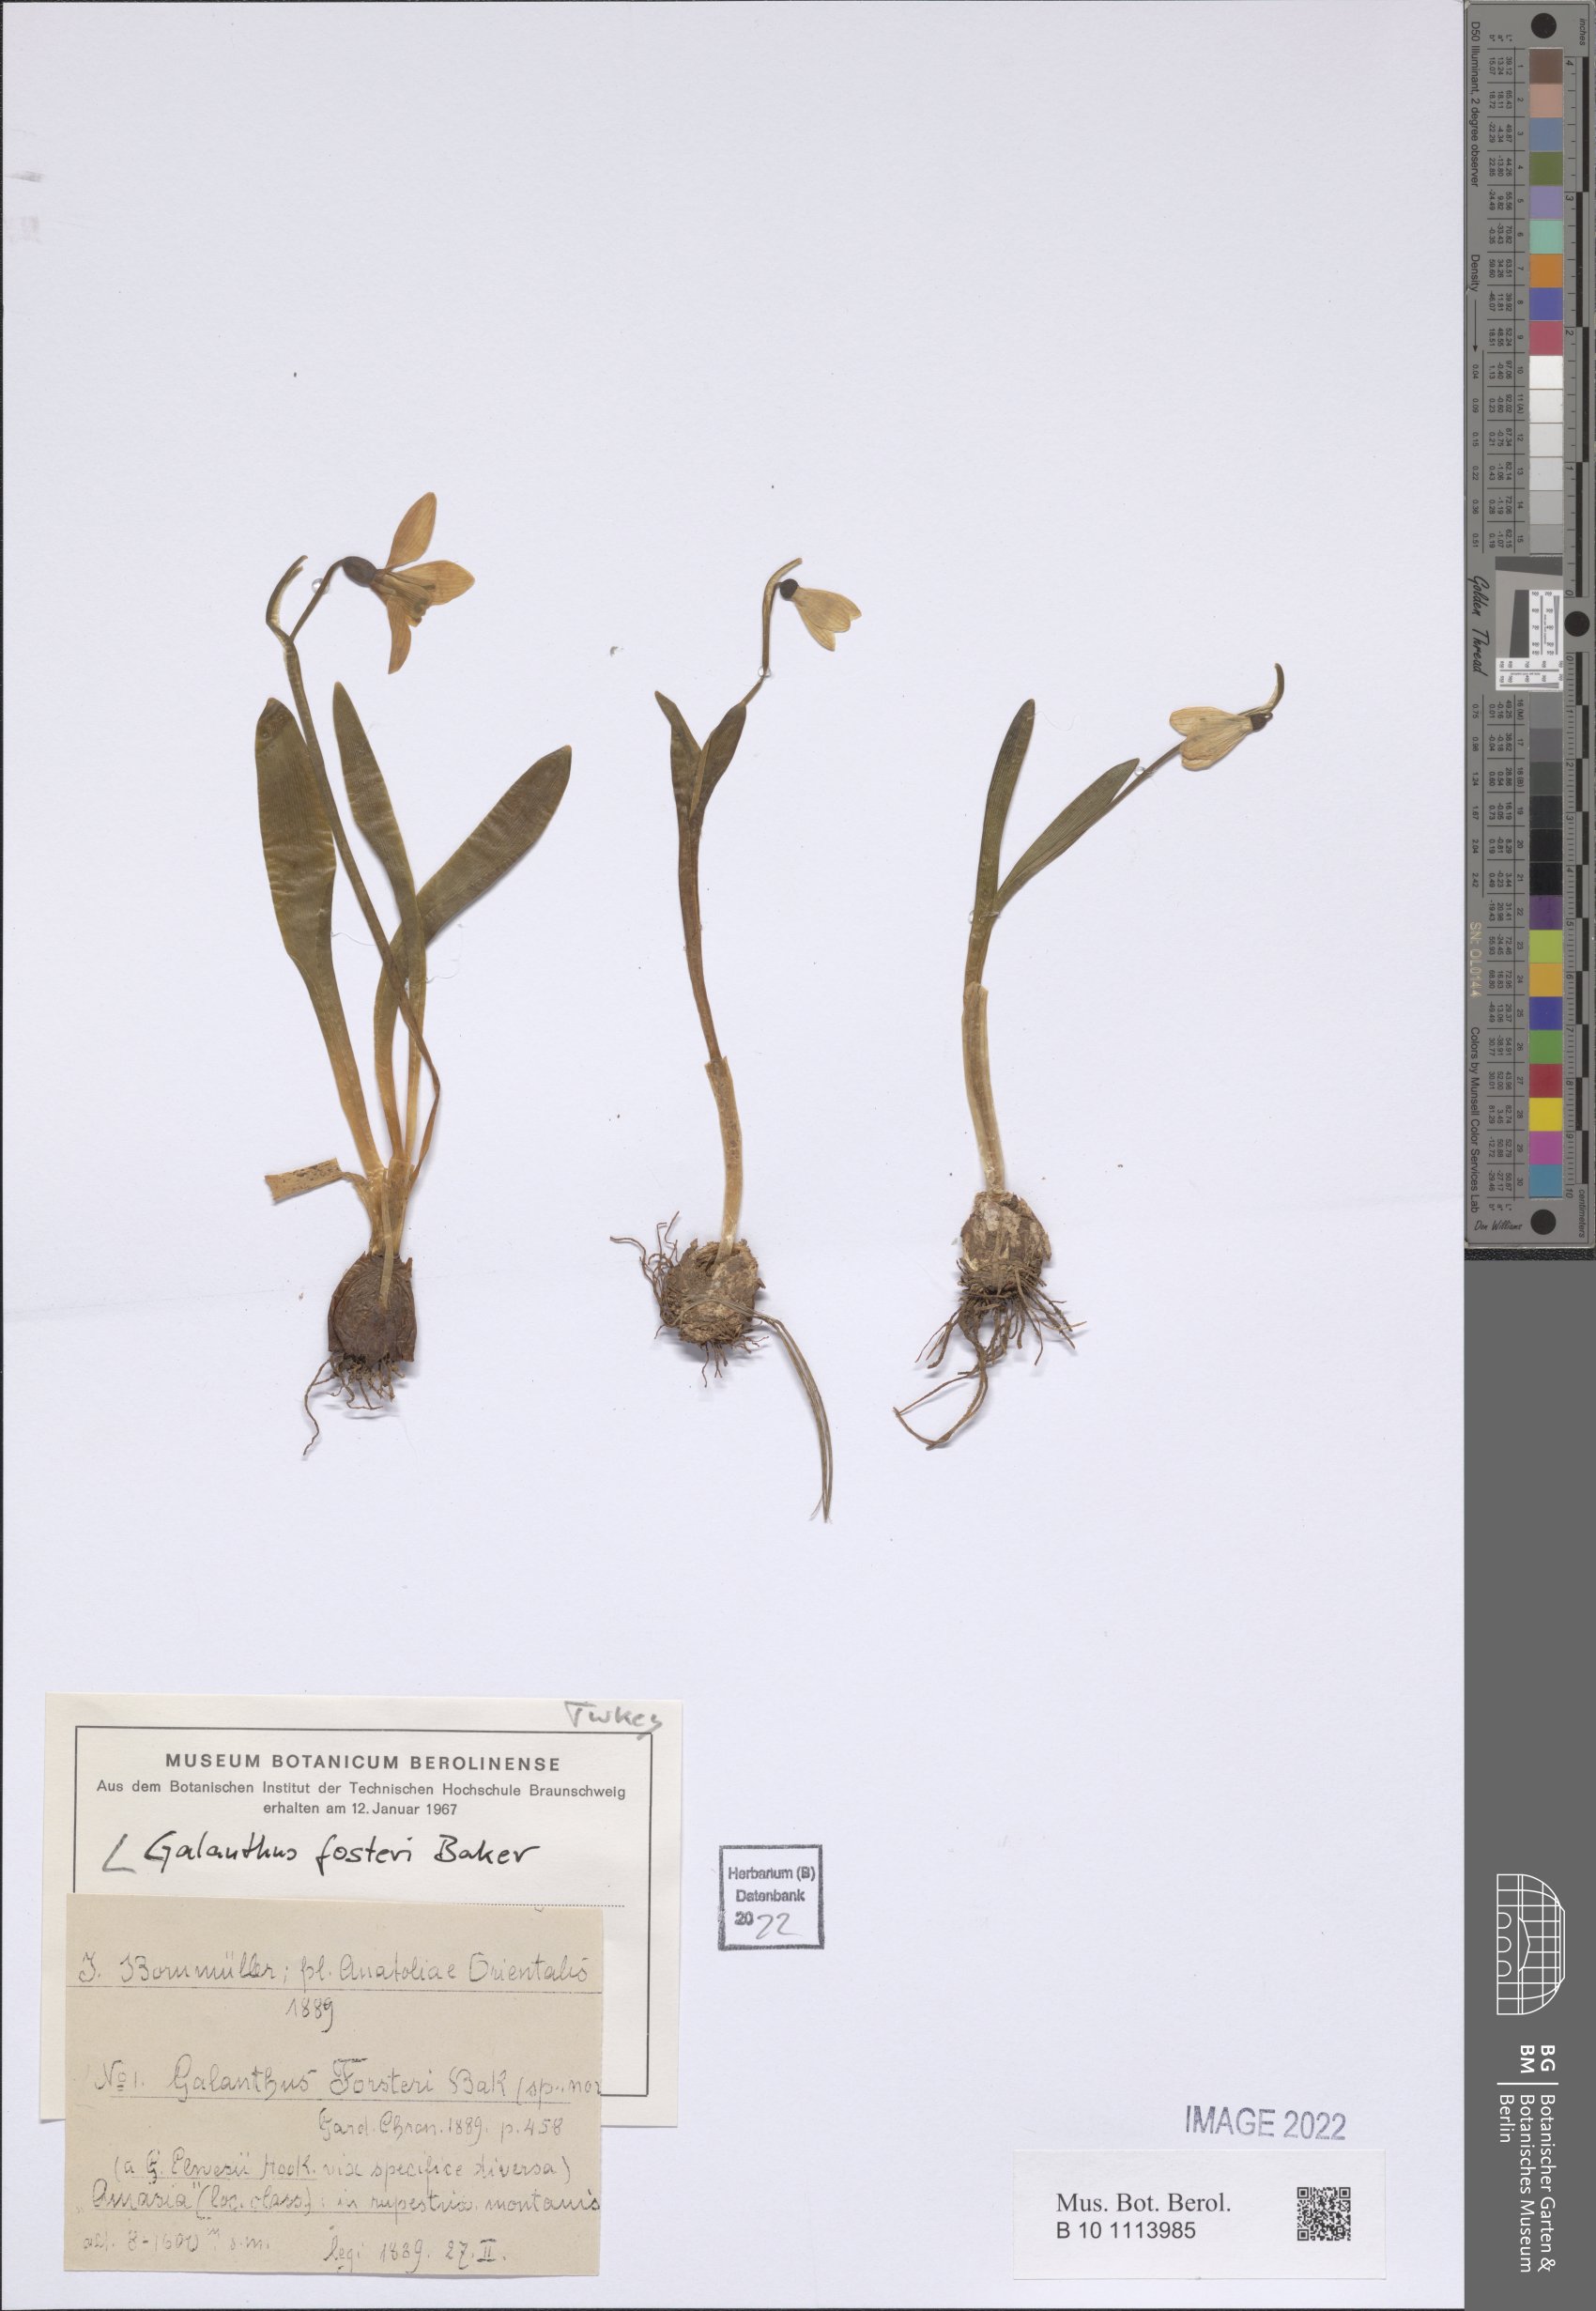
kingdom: Plantae
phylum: Tracheophyta
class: Liliopsida
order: Asparagales
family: Amaryllidaceae
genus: Galanthus
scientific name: Galanthus fosteri
